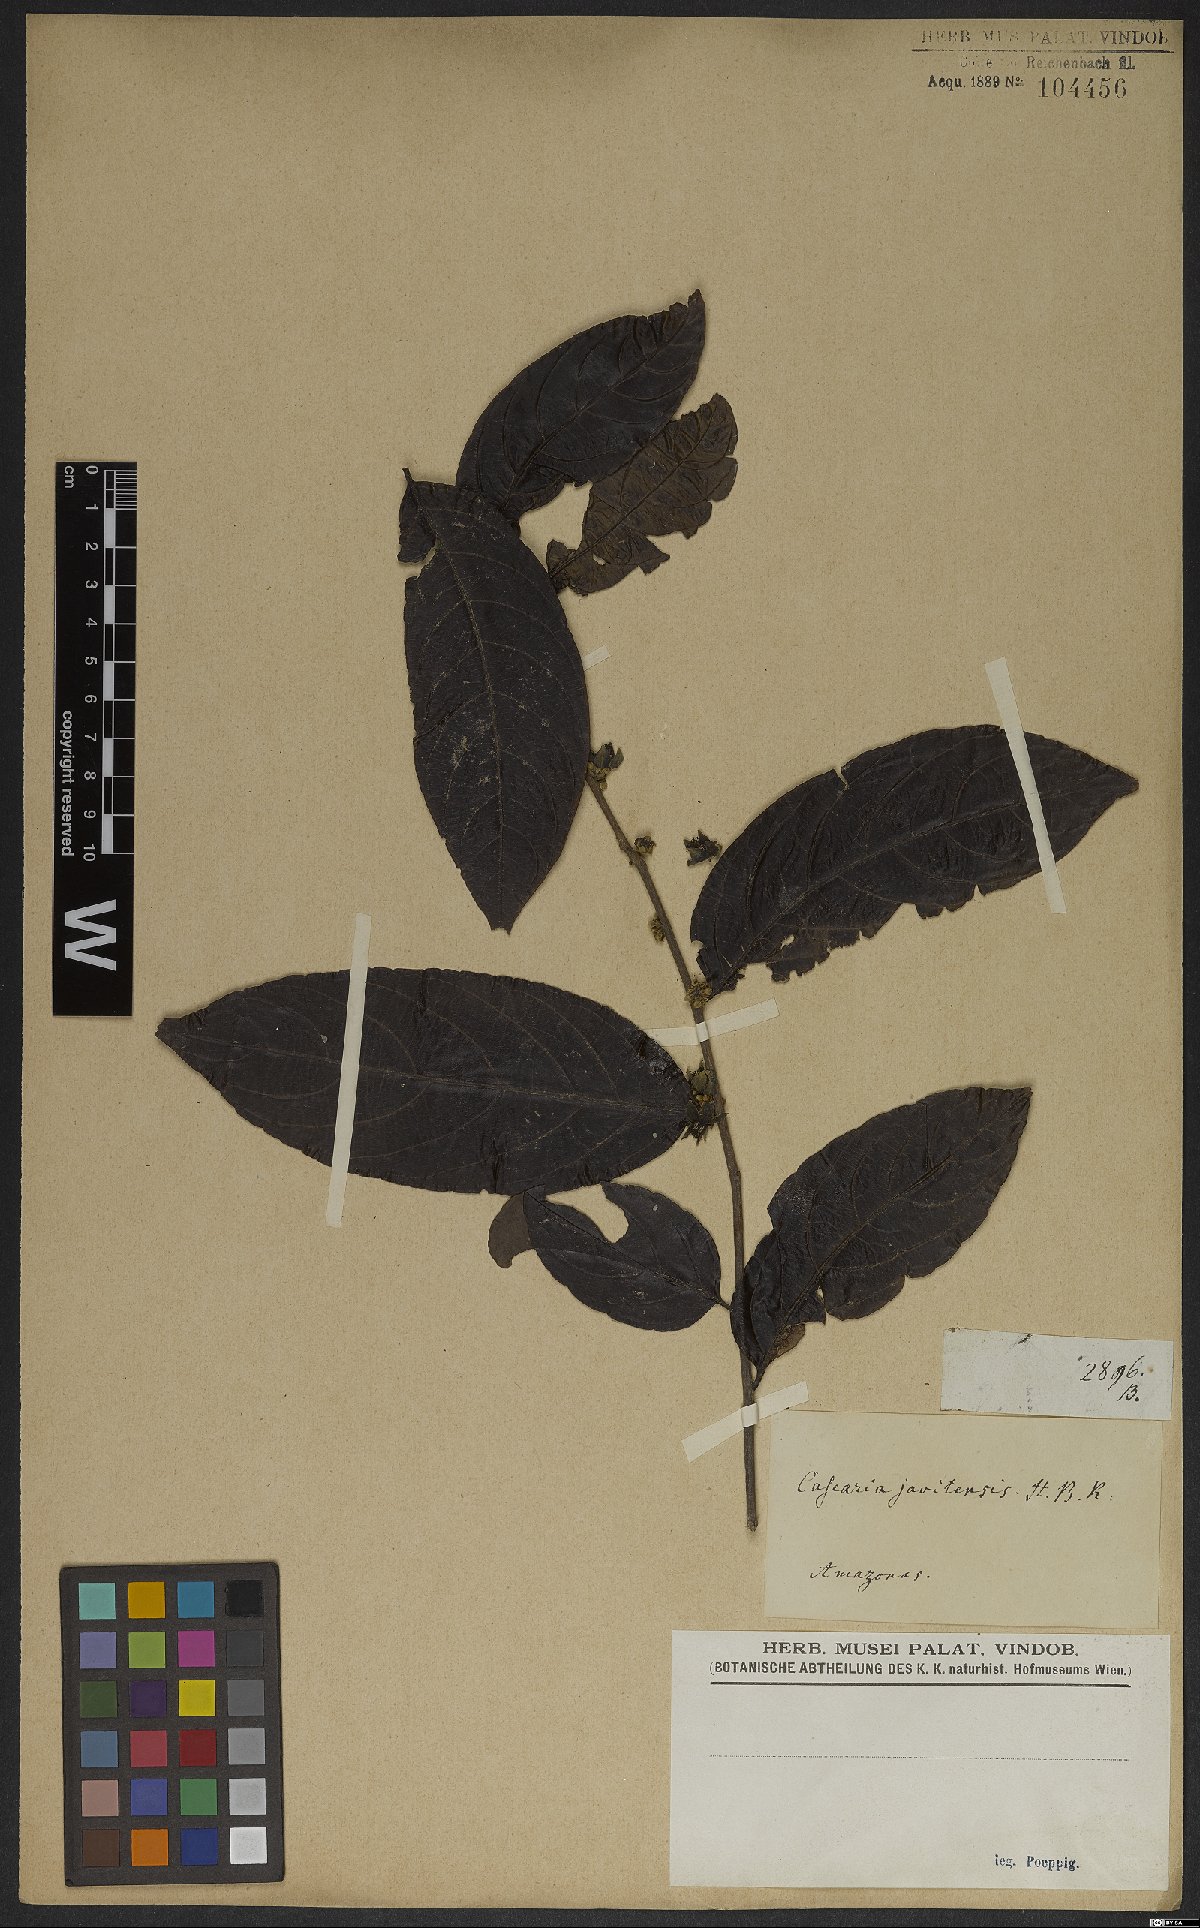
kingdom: Plantae
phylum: Tracheophyta
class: Magnoliopsida
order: Malpighiales
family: Salicaceae
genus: Piparea
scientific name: Piparea multiflora
